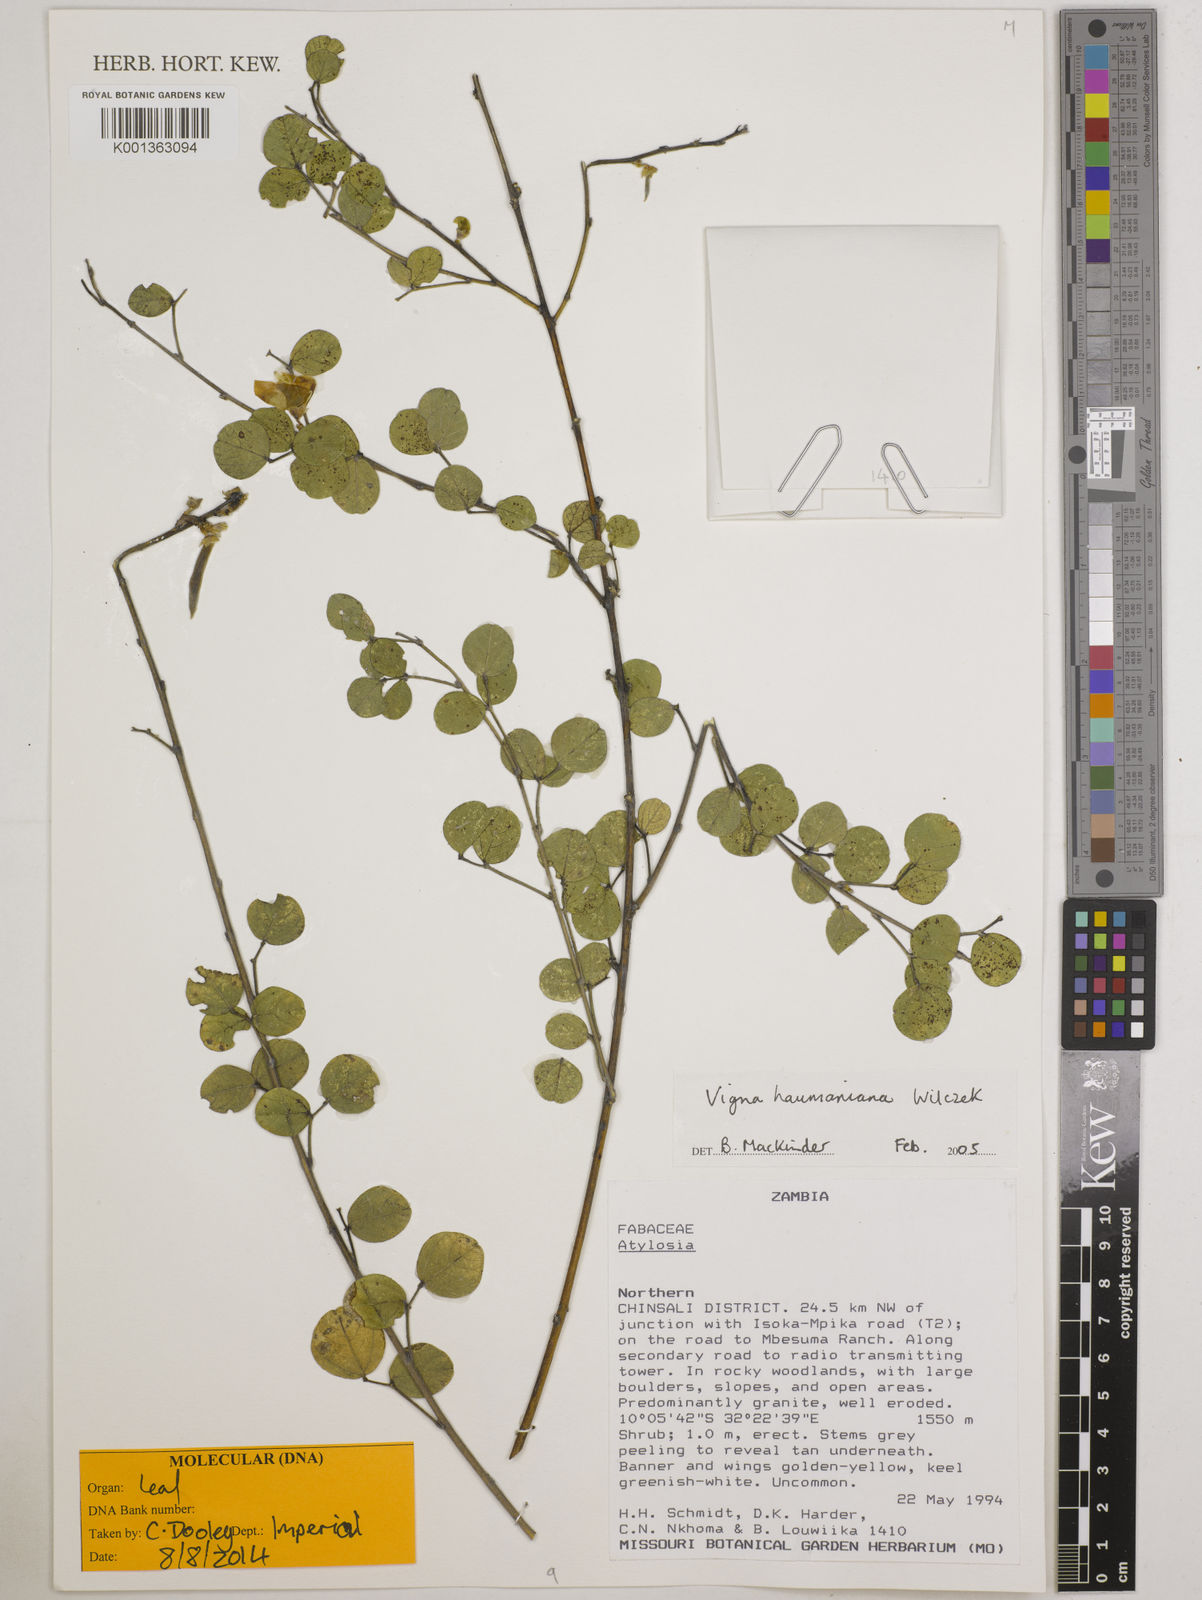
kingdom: Plantae
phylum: Tracheophyta
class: Magnoliopsida
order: Fabales
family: Fabaceae
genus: Vigna
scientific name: Vigna haumaniana
